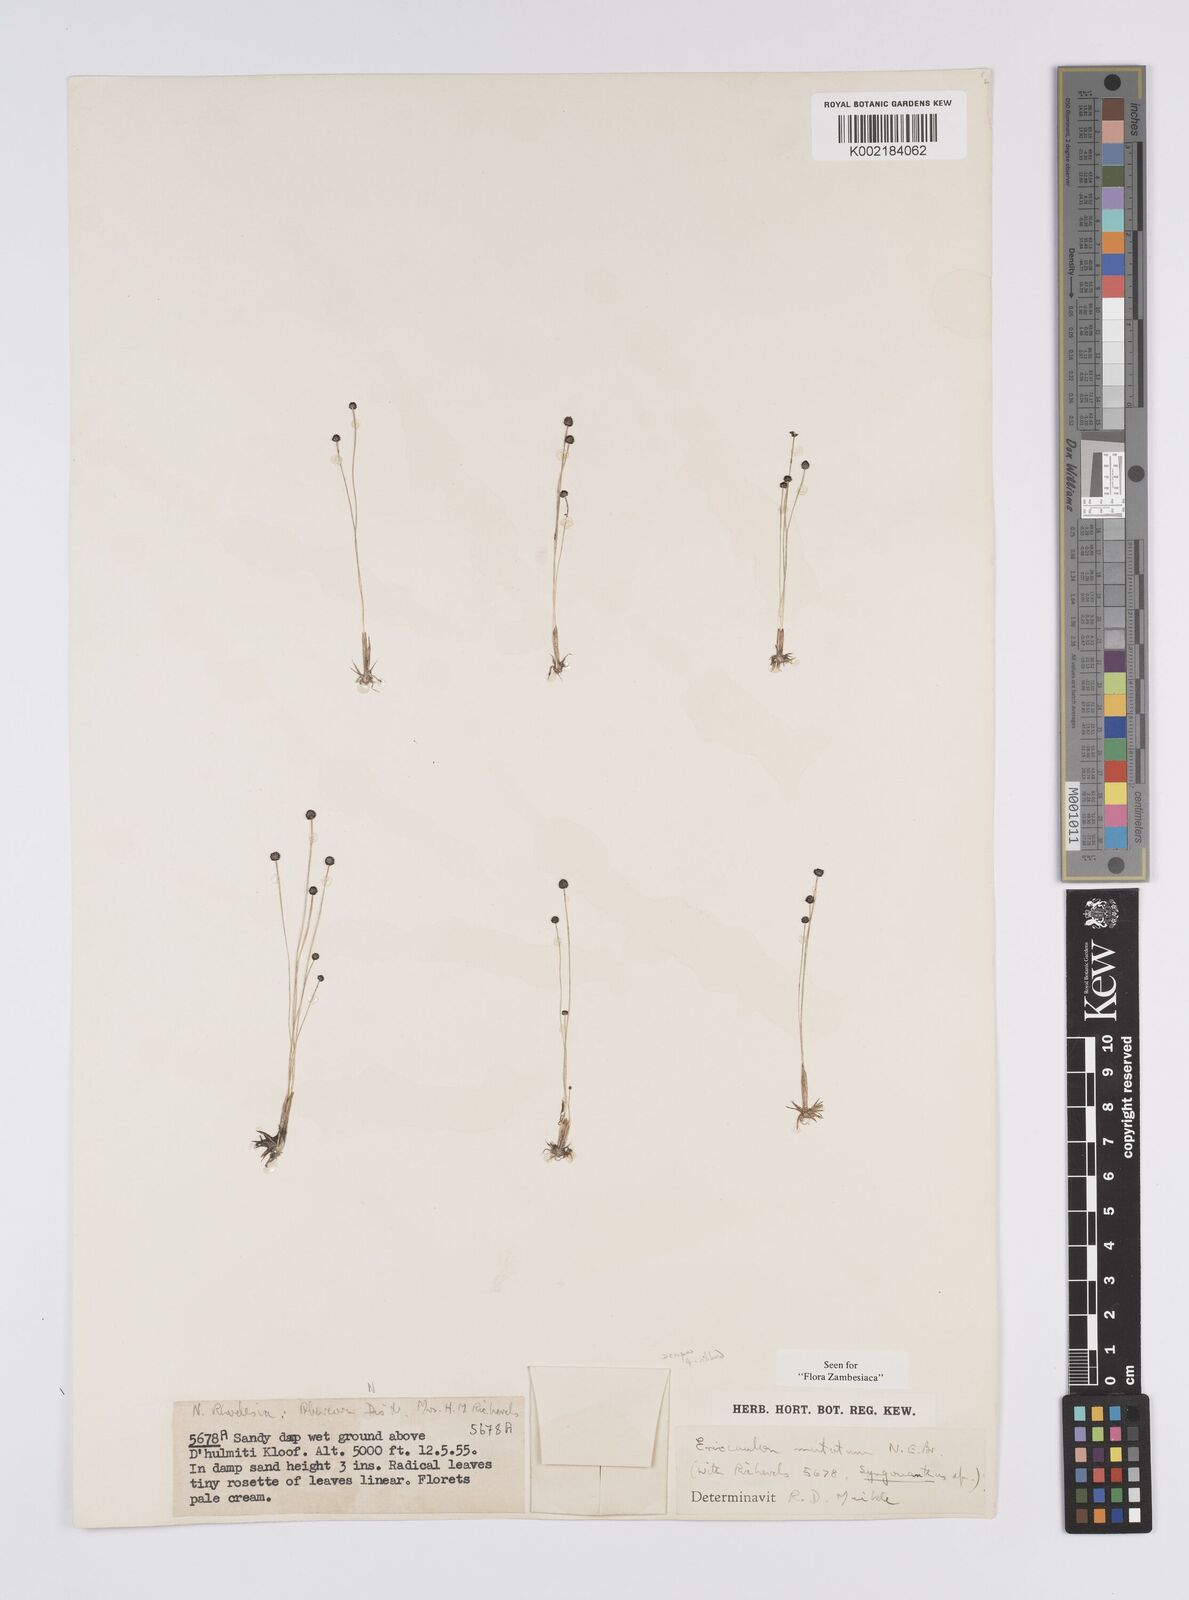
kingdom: Plantae
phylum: Tracheophyta
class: Liliopsida
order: Poales
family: Eriocaulaceae
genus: Eriocaulon
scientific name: Eriocaulon mutatum
